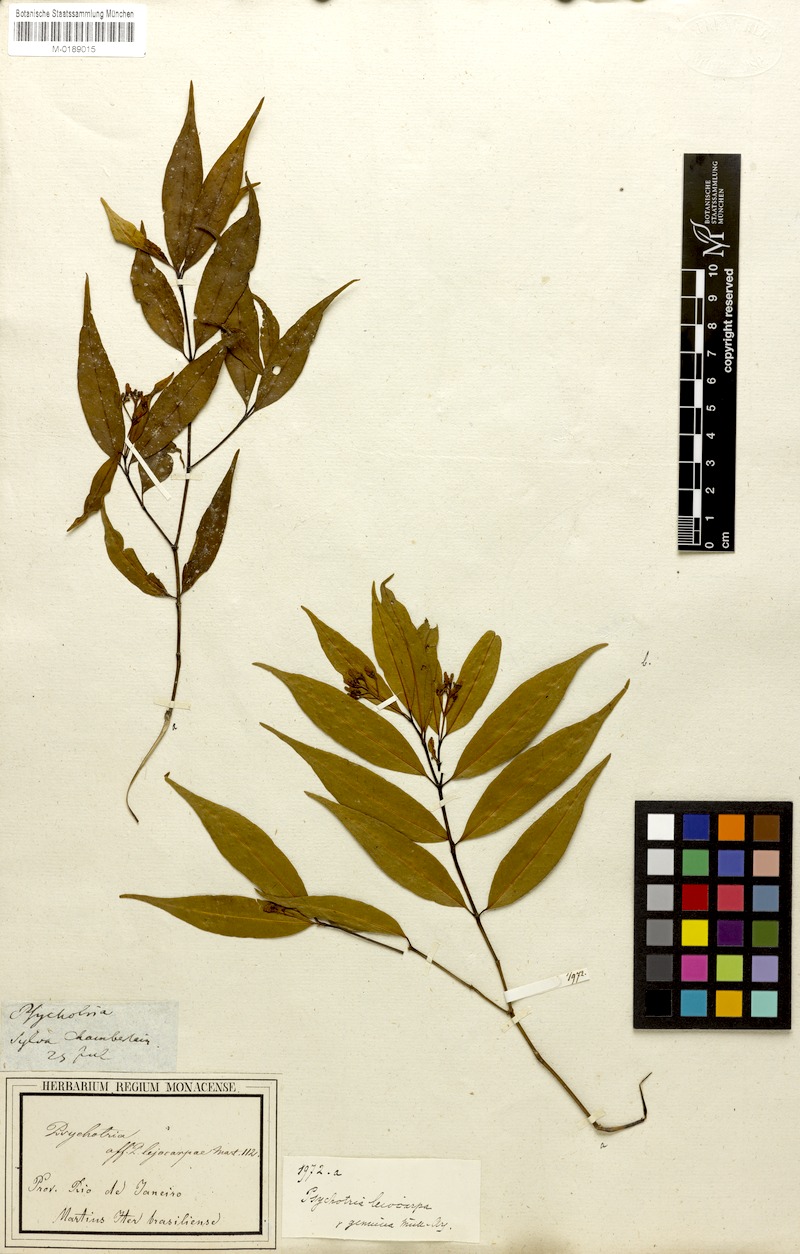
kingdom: Plantae
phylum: Tracheophyta
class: Magnoliopsida
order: Gentianales
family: Rubiaceae
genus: Psychotria
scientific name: Psychotria leiocarpa
